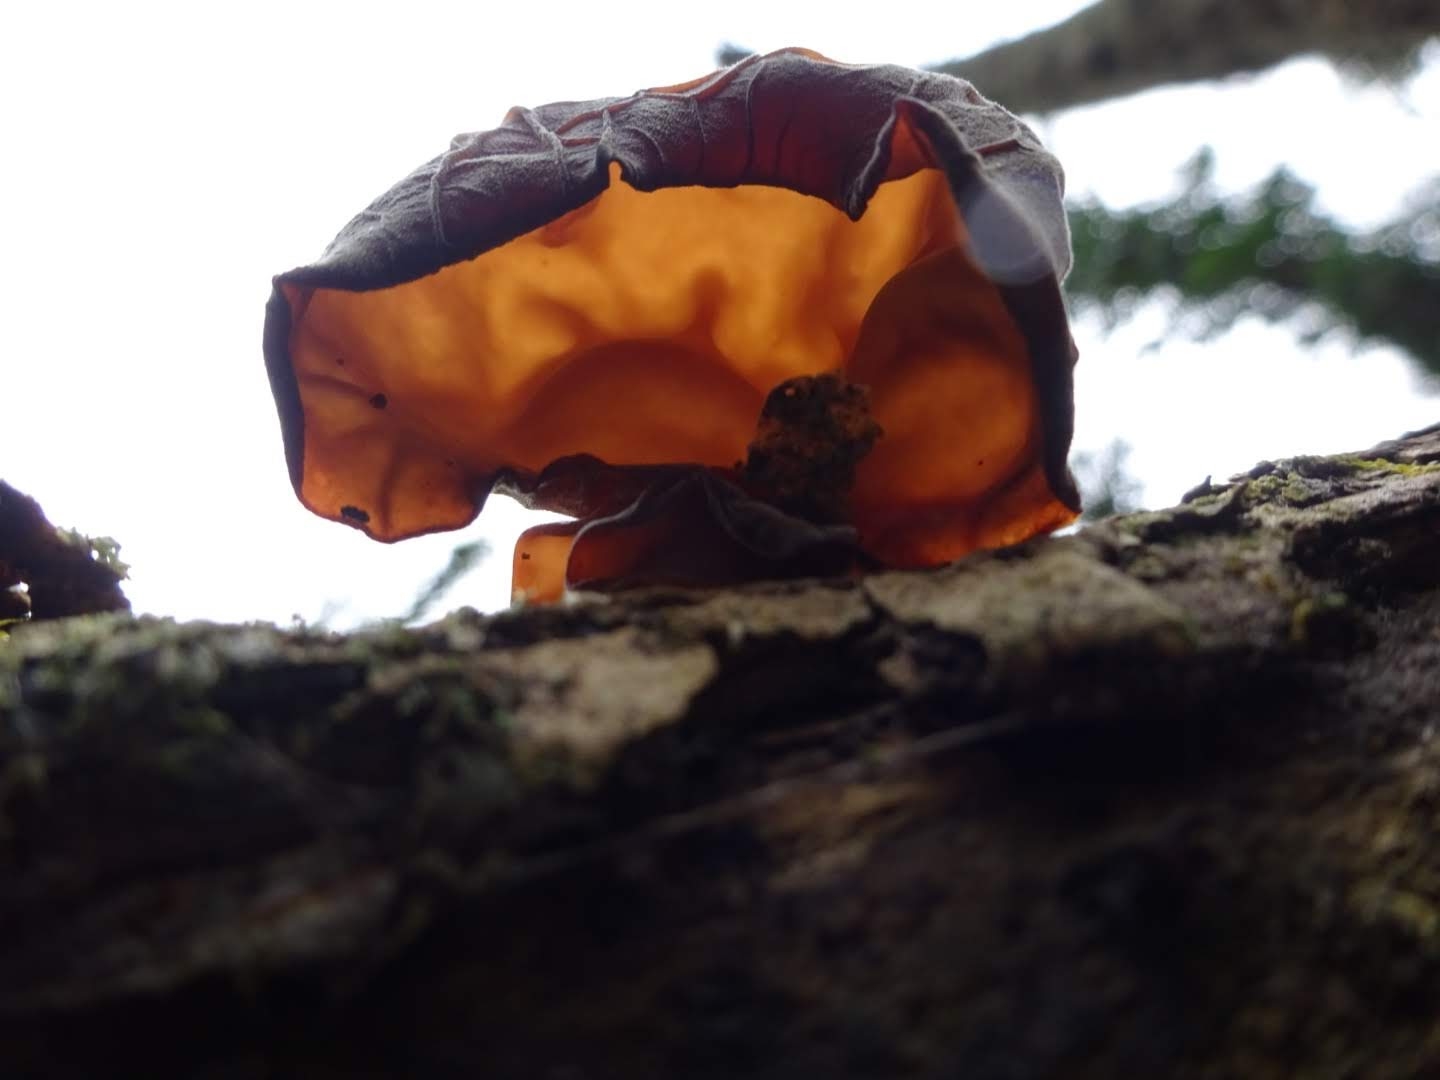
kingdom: Fungi
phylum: Basidiomycota
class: Agaricomycetes
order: Auriculariales
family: Auriculariaceae
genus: Auricularia
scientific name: Auricularia auricula-judae
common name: almindelig judasøre
